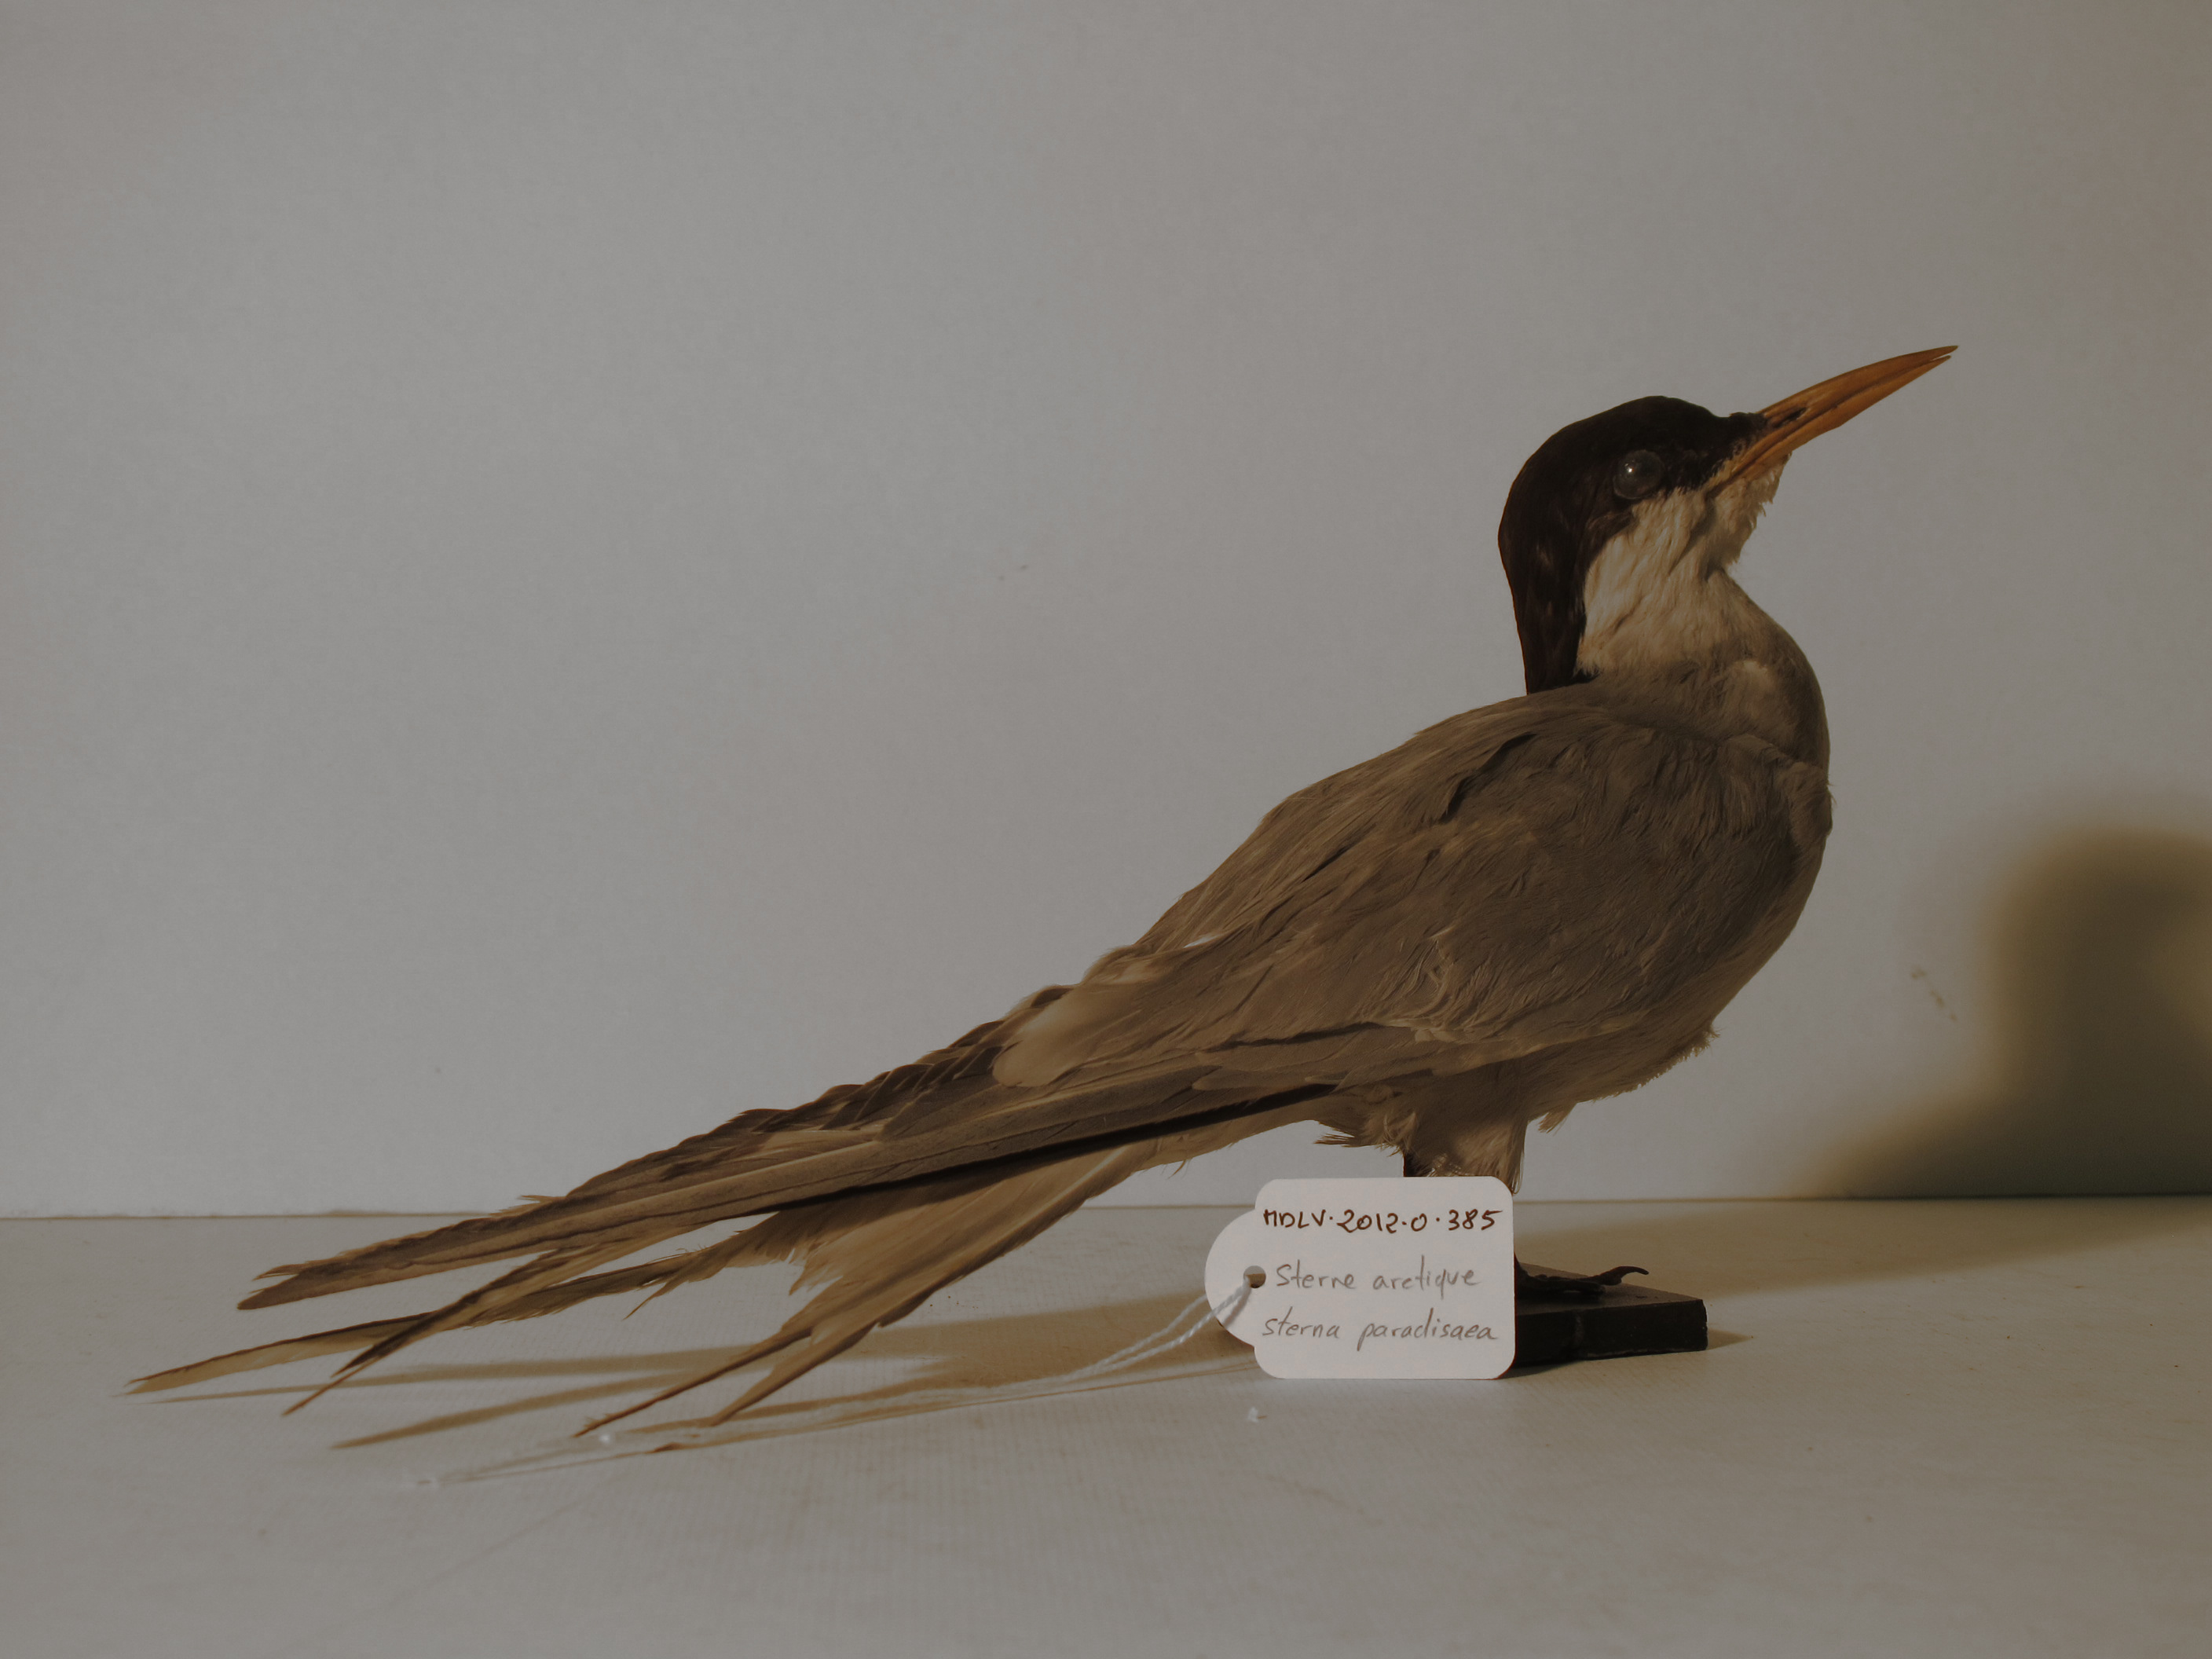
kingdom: Animalia
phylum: Chordata
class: Aves
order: Charadriiformes
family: Laridae
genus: Sterna
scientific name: Sterna paradisaea
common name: Arctic Tern
